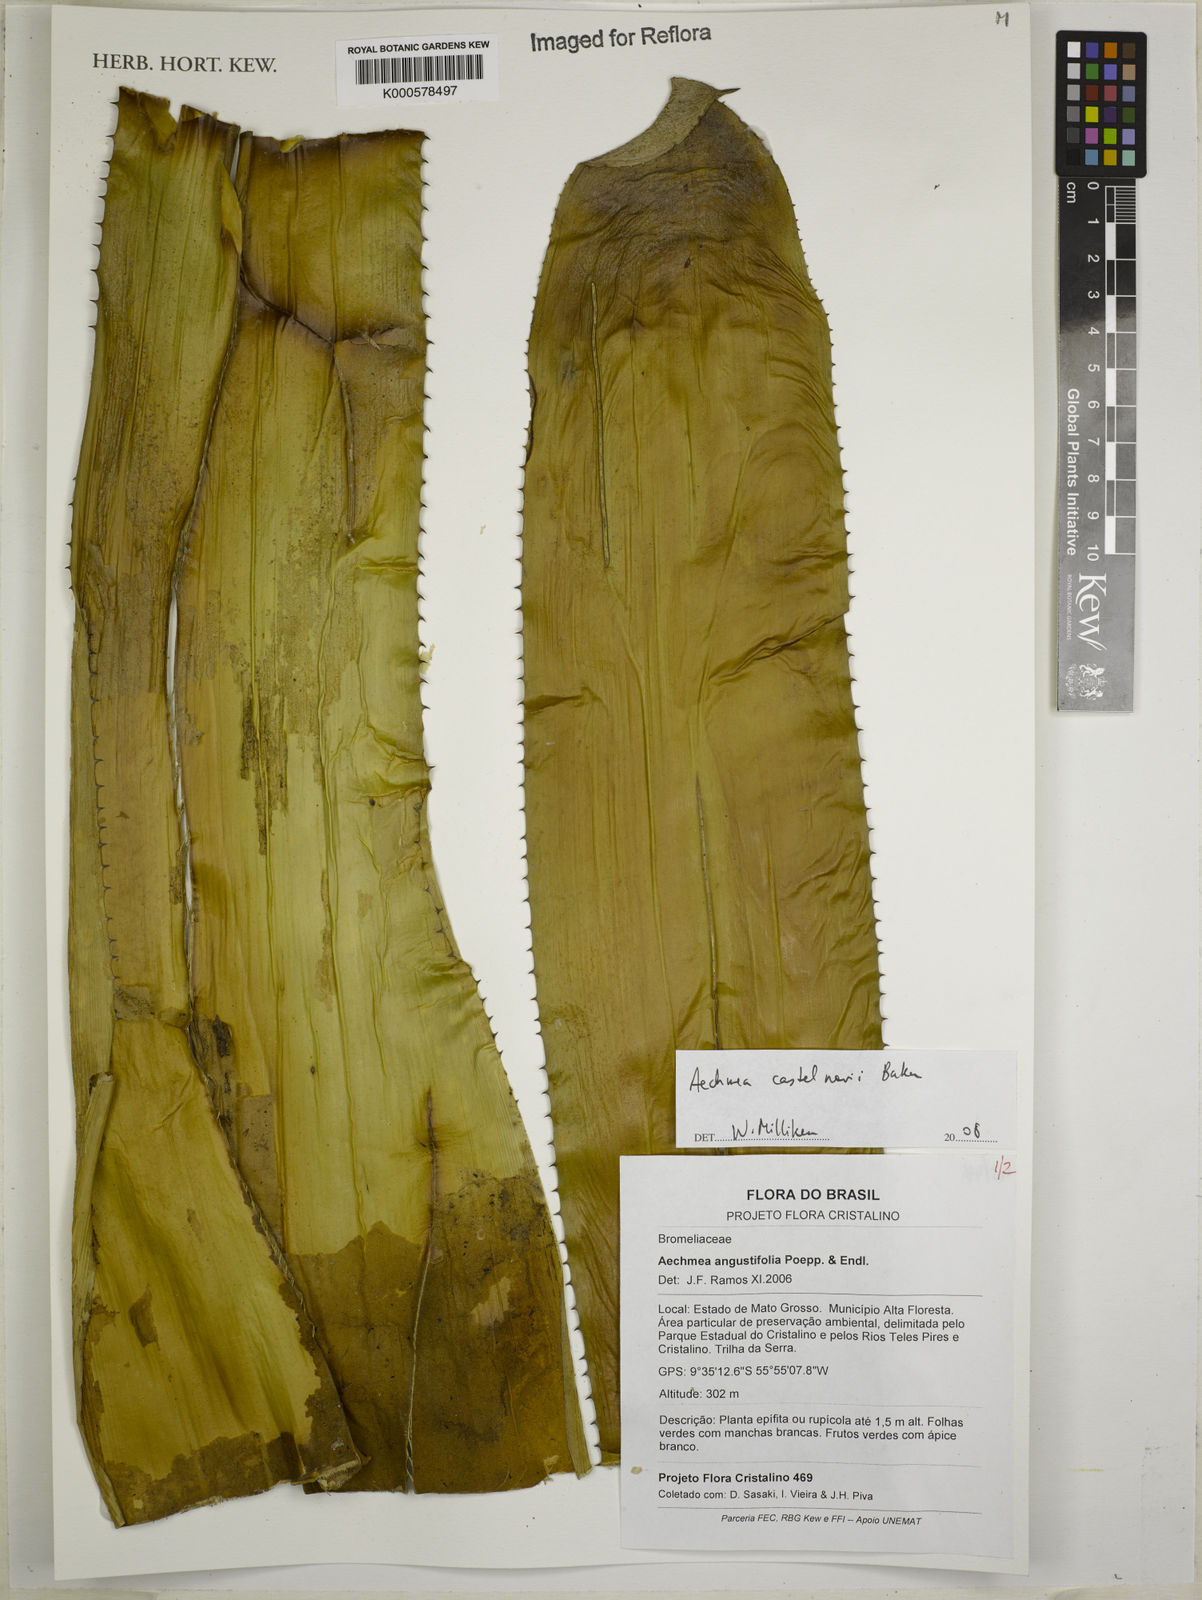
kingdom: Plantae
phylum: Tracheophyta
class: Liliopsida
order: Poales
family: Bromeliaceae
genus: Aechmea
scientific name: Aechmea castelnavii
